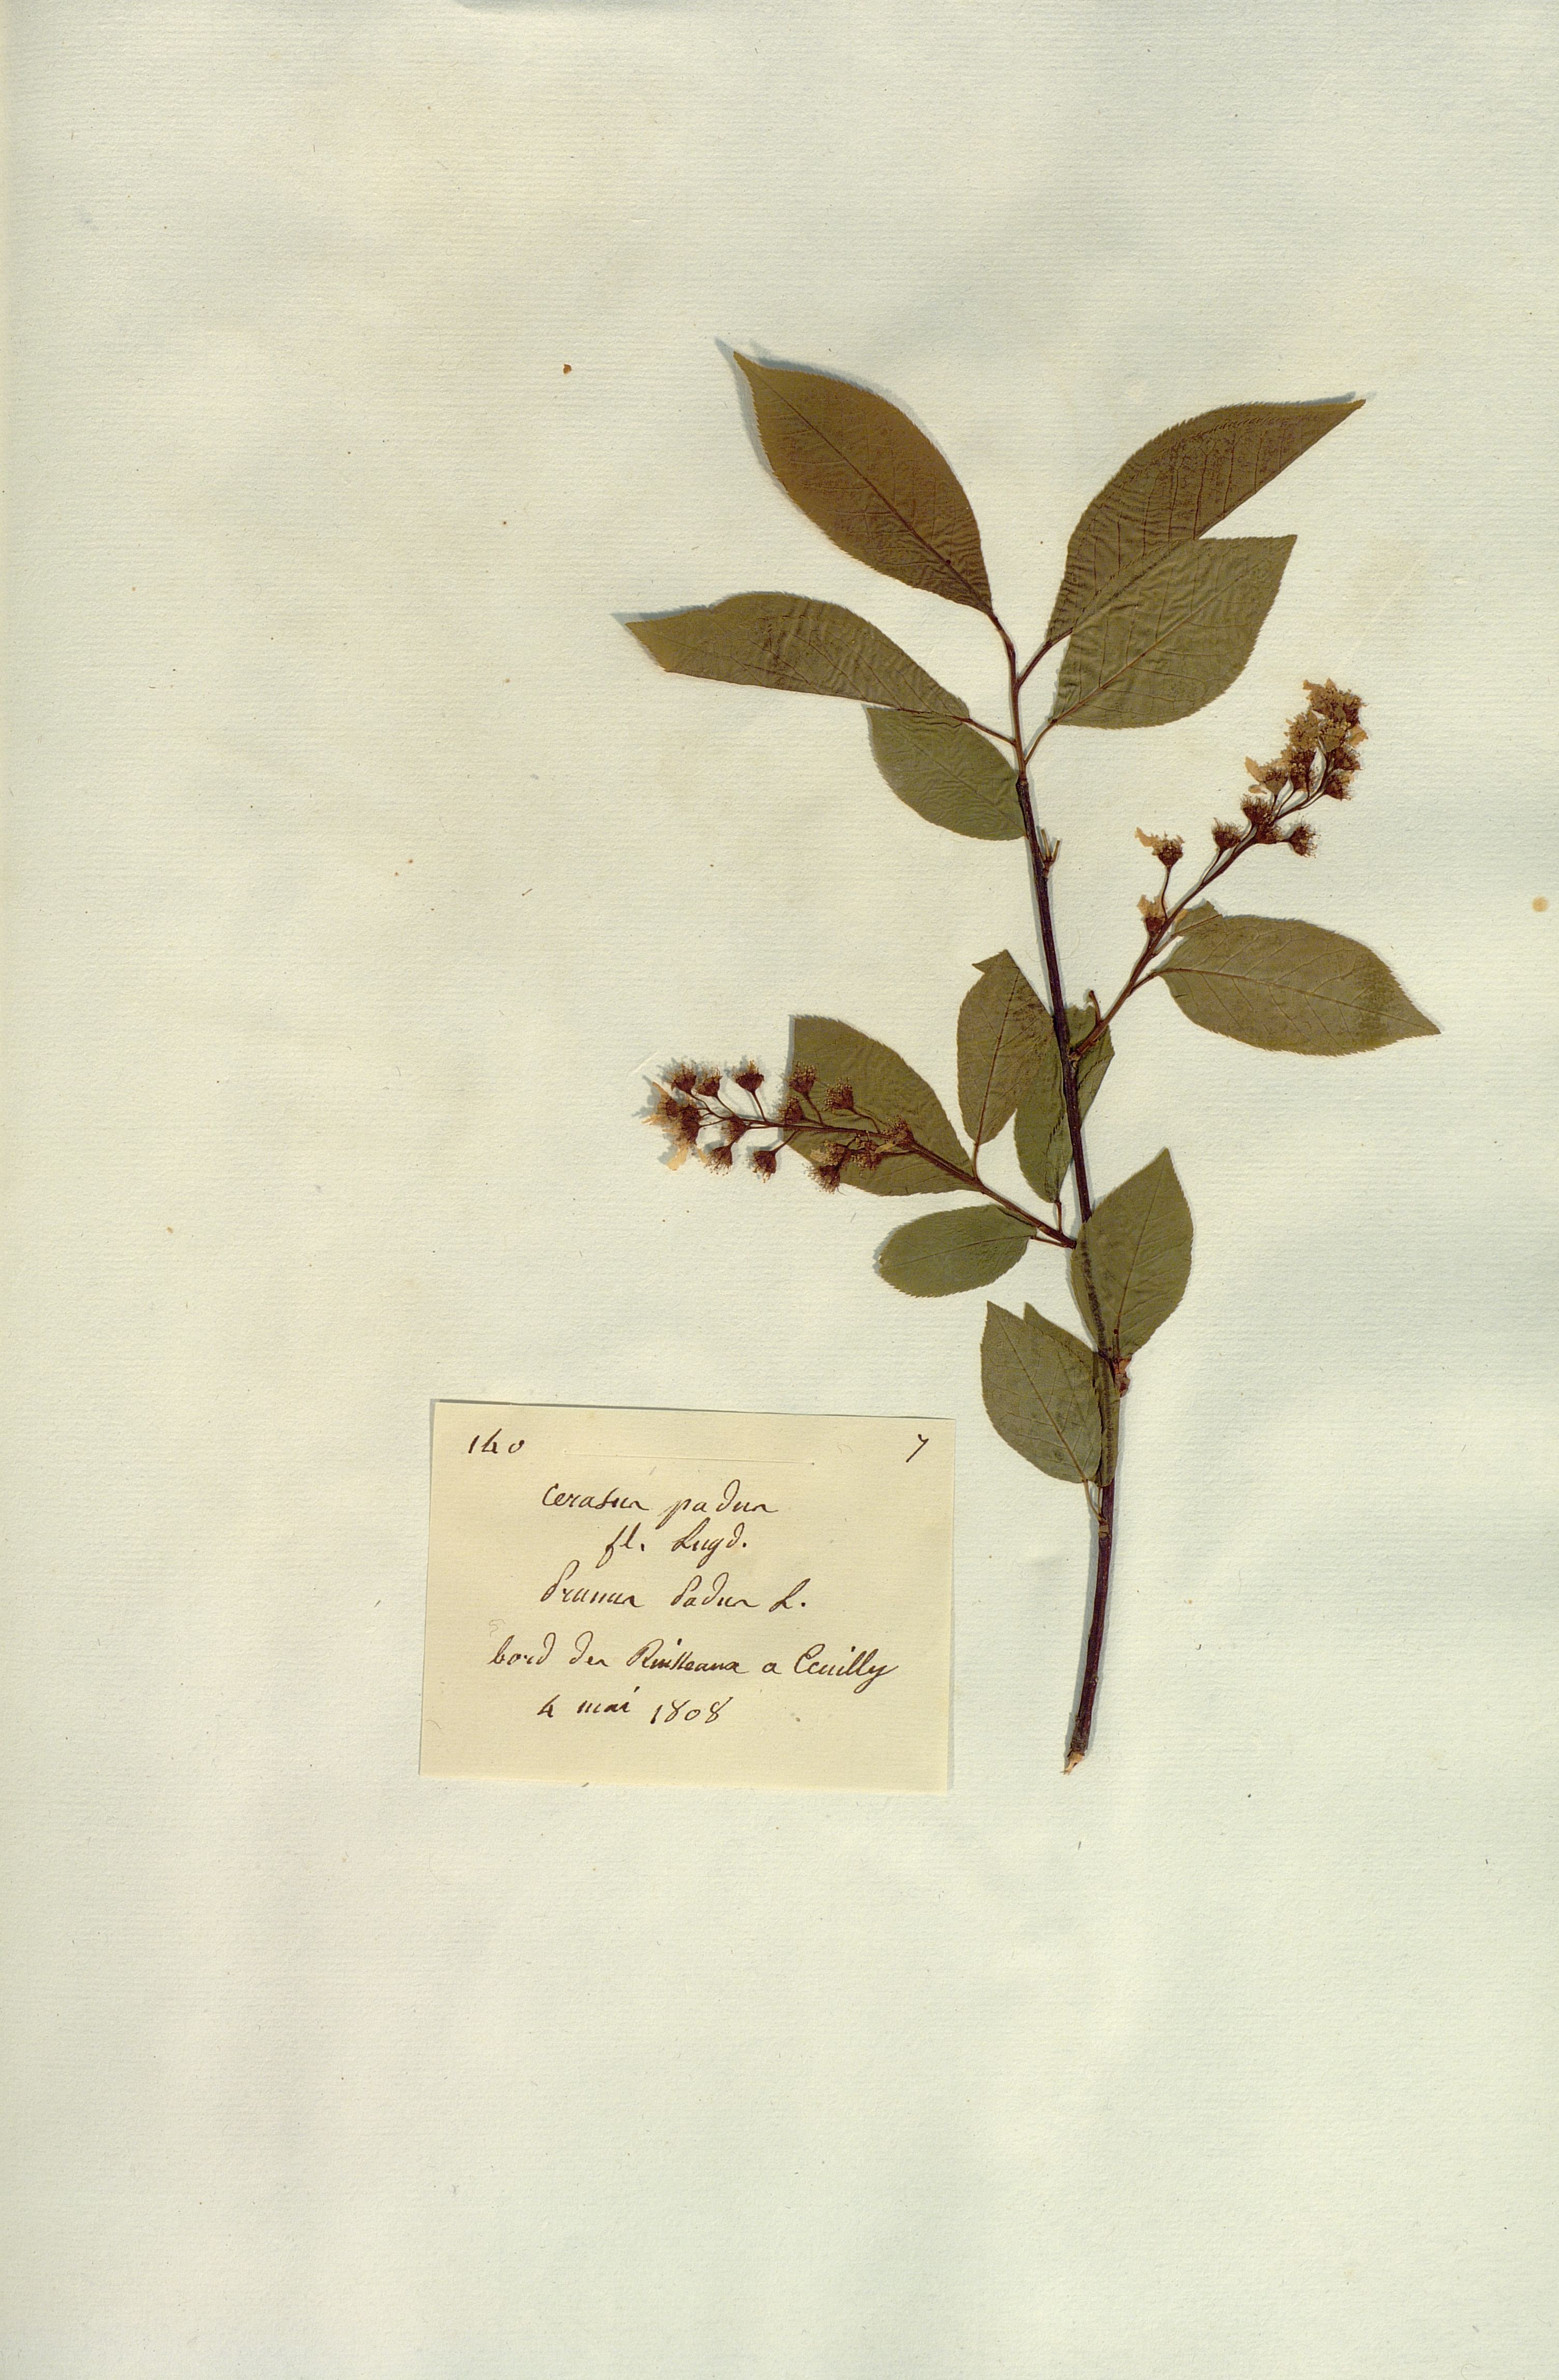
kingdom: Plantae
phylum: Tracheophyta
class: Magnoliopsida
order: Rosales
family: Rosaceae
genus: Prunus
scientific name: Prunus padus
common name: Bird cherry
